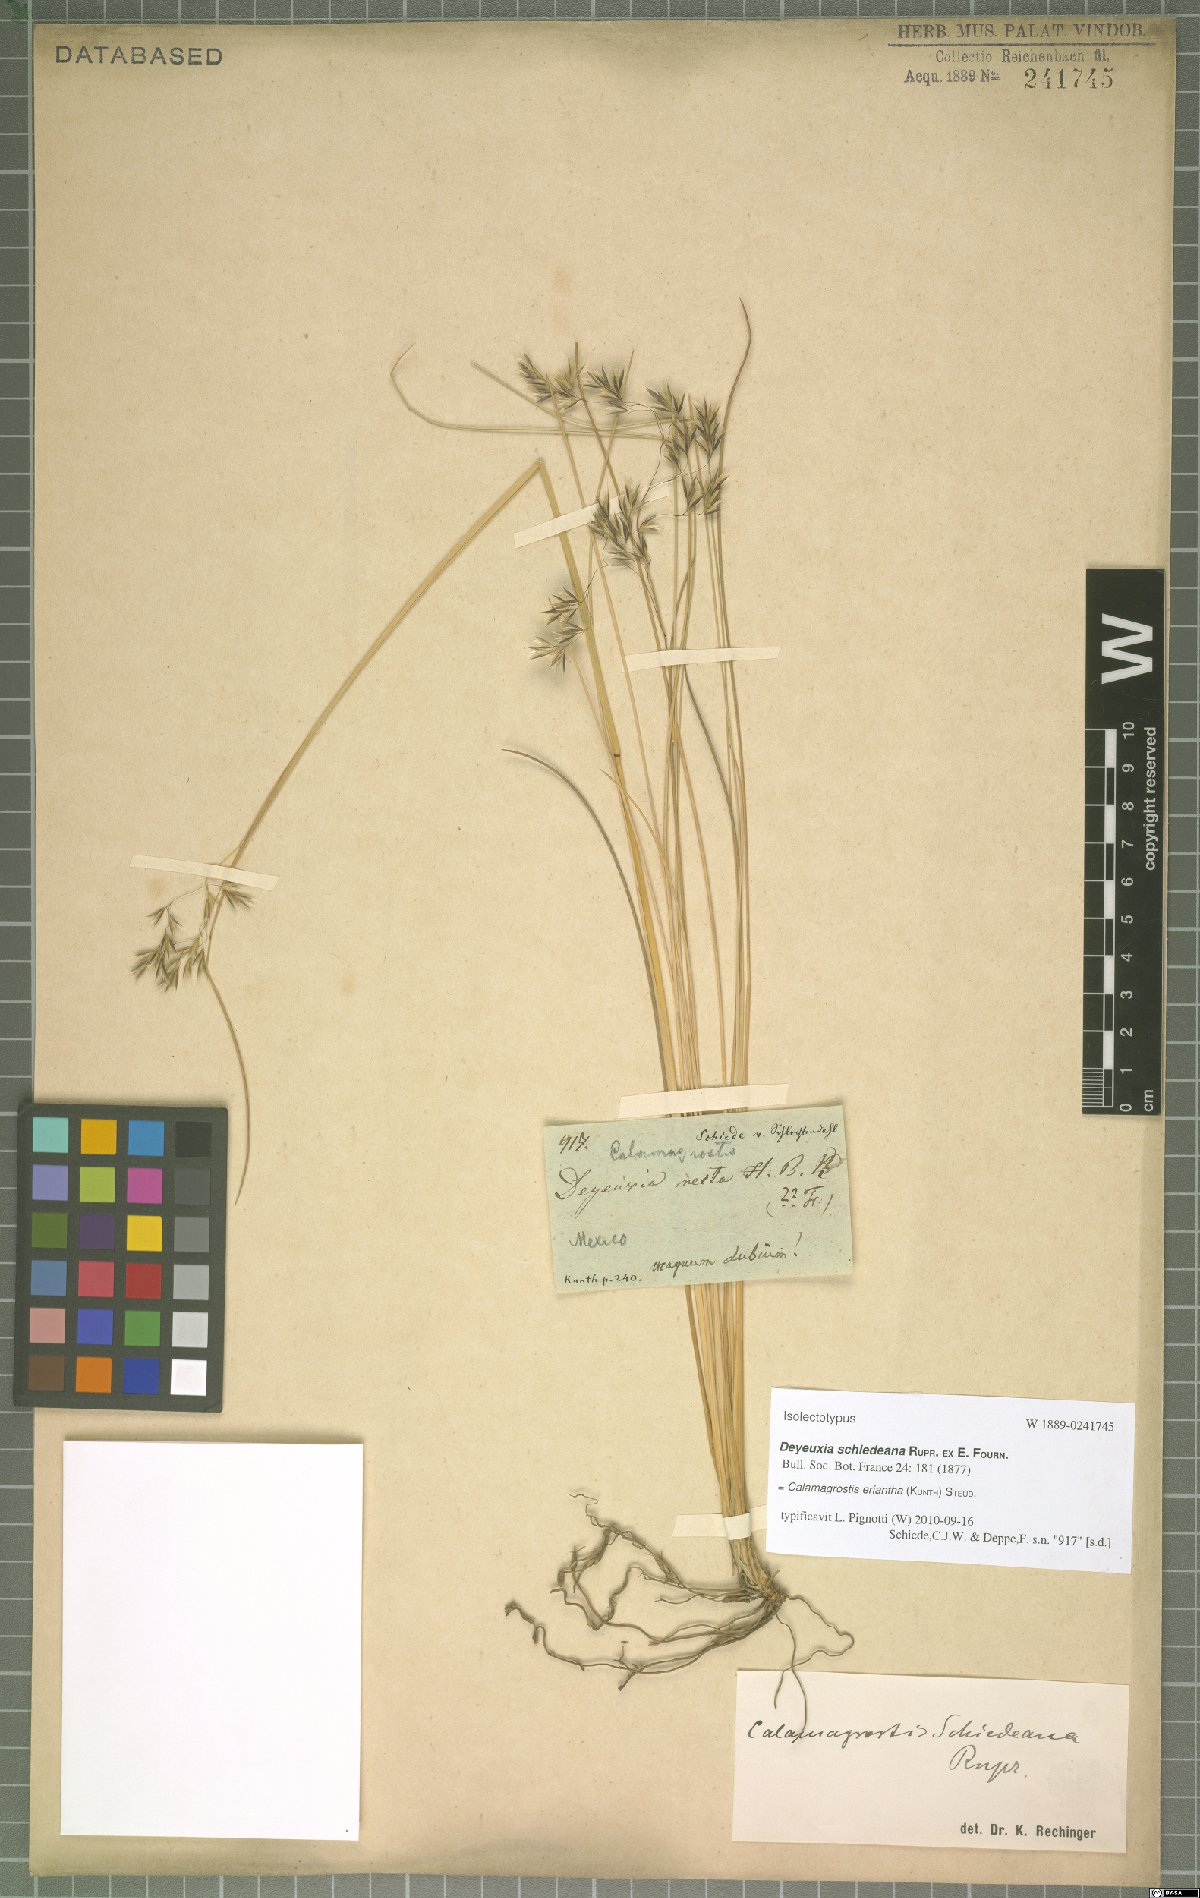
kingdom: Plantae
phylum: Tracheophyta
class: Liliopsida
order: Poales
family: Poaceae
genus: Peyritschia
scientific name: Peyritschia eriantha
